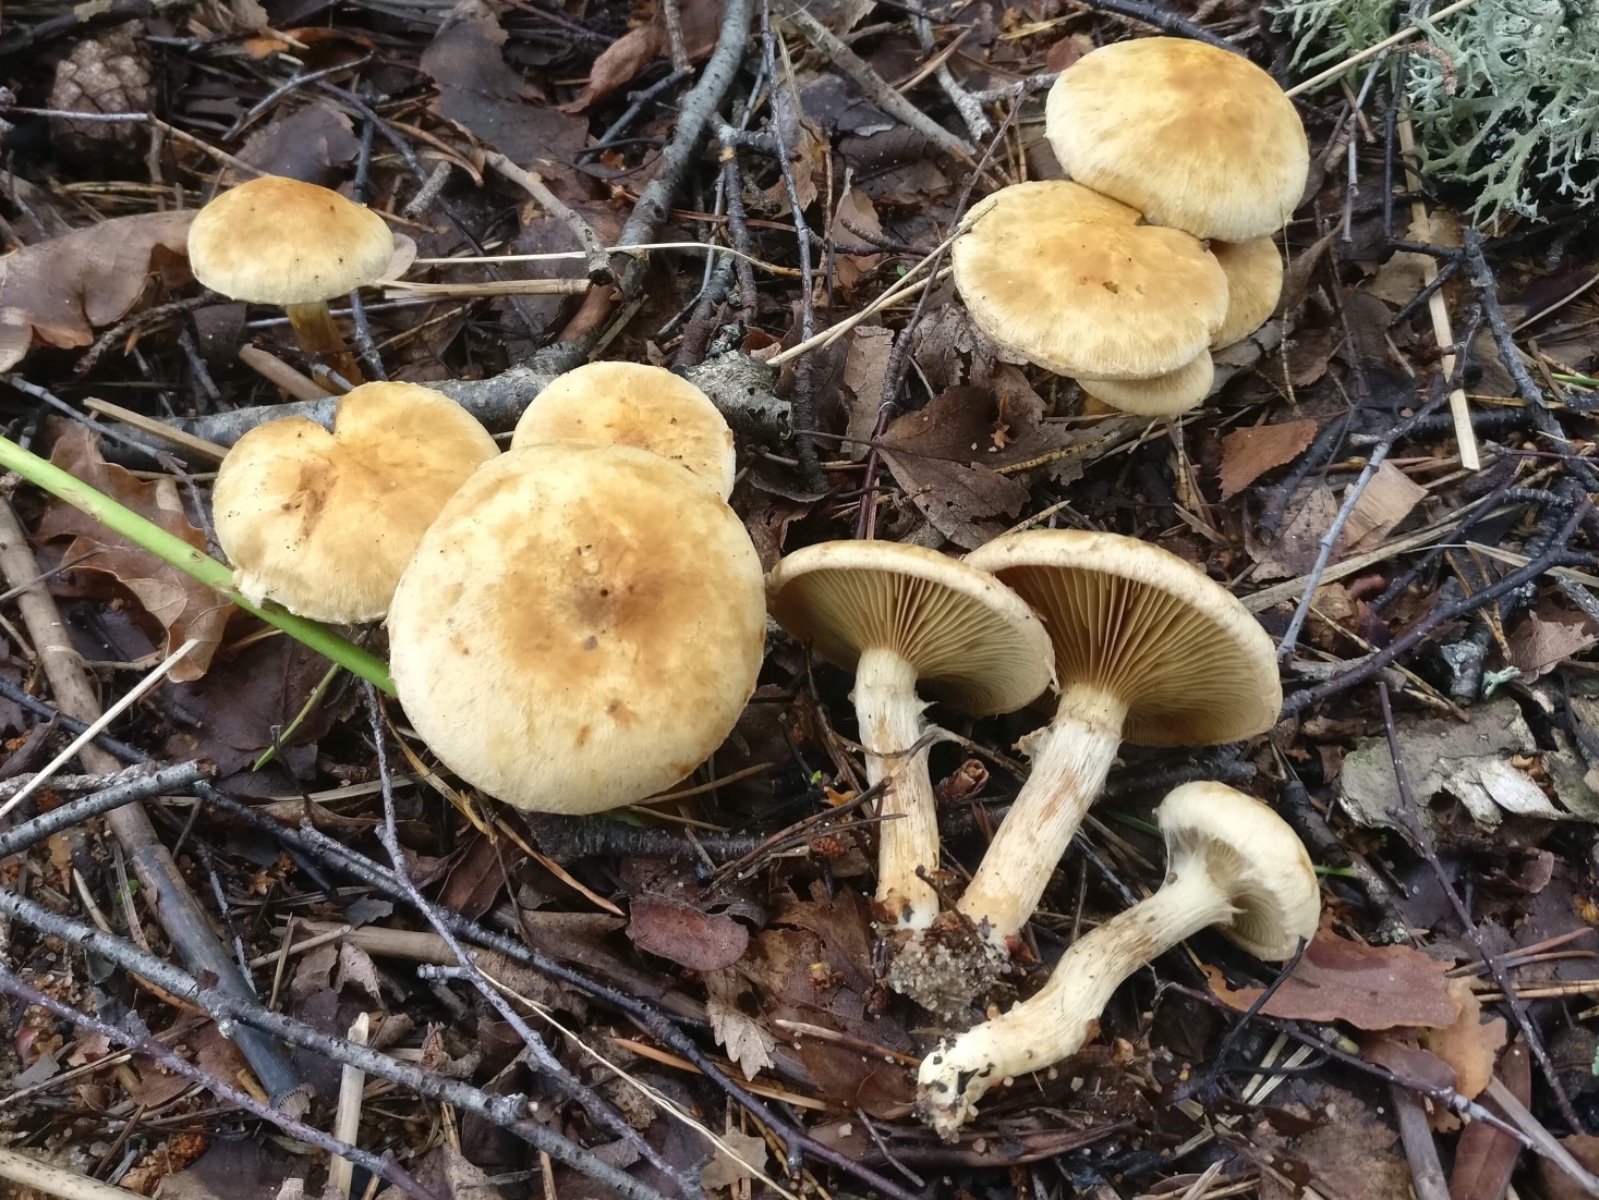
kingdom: Fungi
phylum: Basidiomycota
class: Agaricomycetes
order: Agaricales
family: Inocybaceae
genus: Inocybe
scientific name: Inocybe
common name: trævlhat
